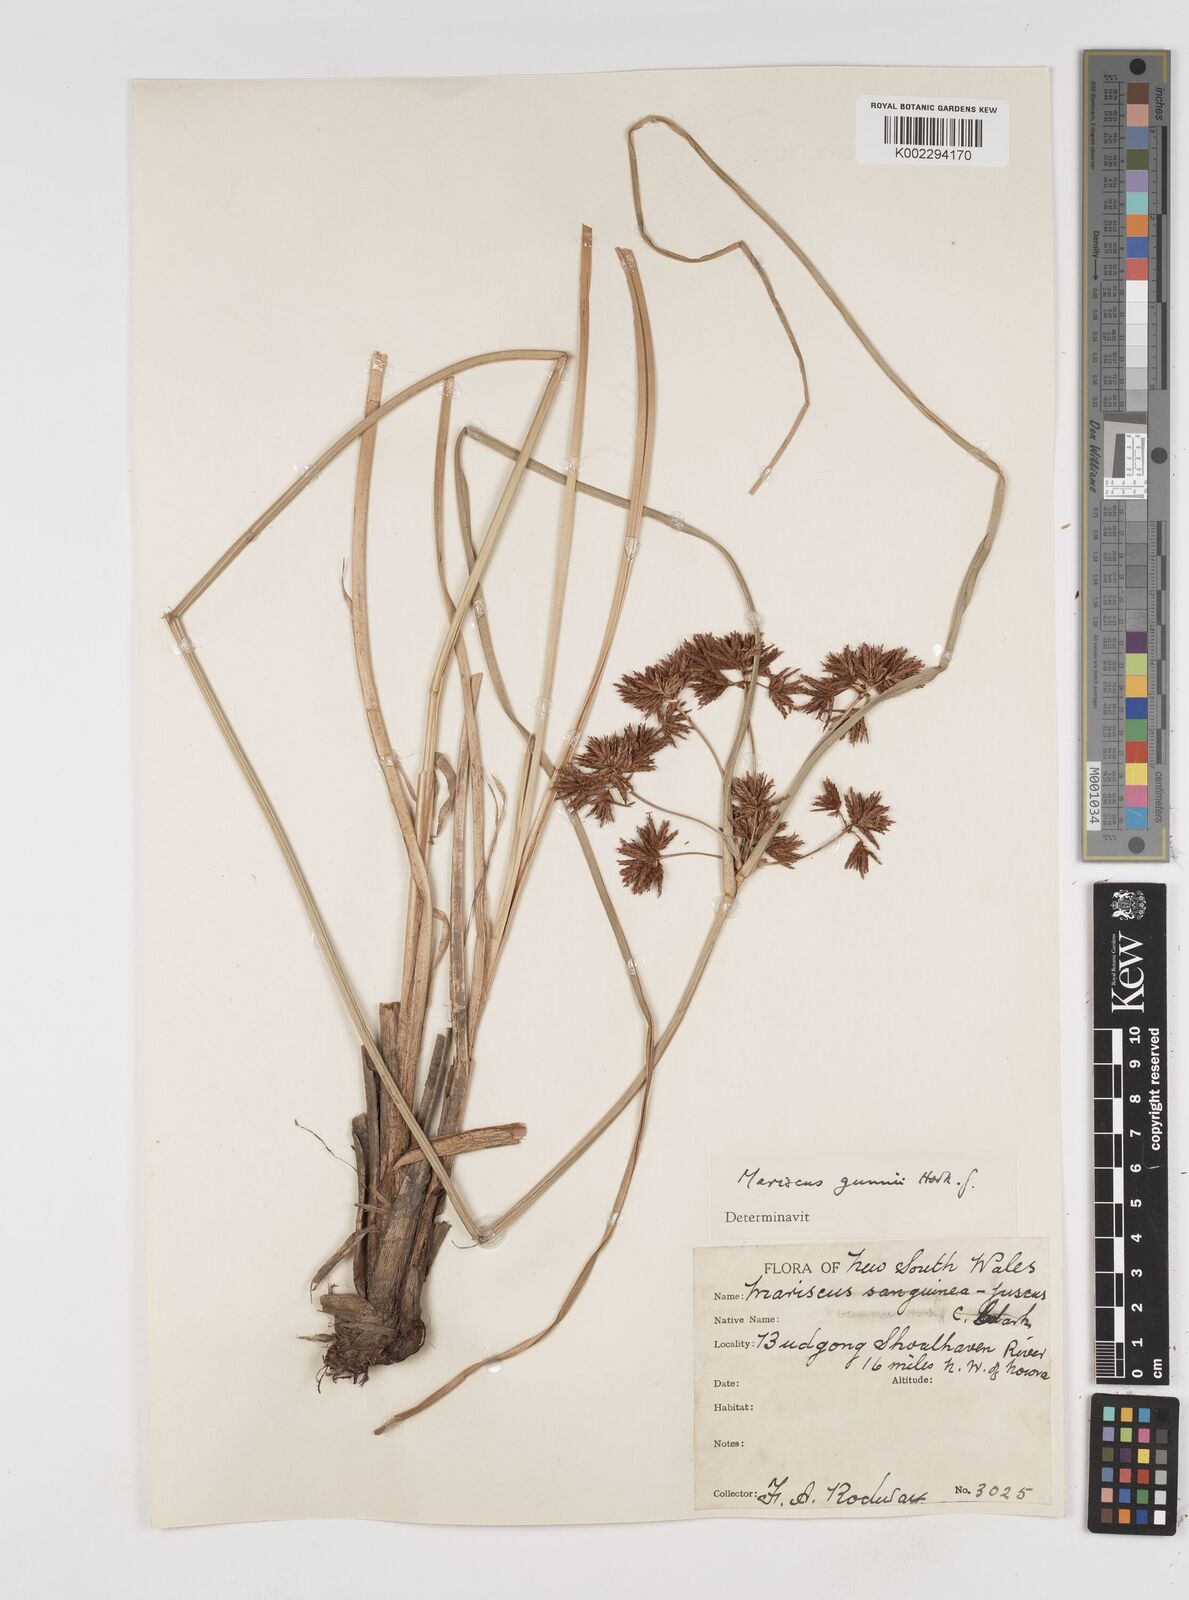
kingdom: Plantae
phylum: Tracheophyta
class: Liliopsida
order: Poales
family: Cyperaceae
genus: Cyperus
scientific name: Cyperus gunnii
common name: Flecked flat-sedge
